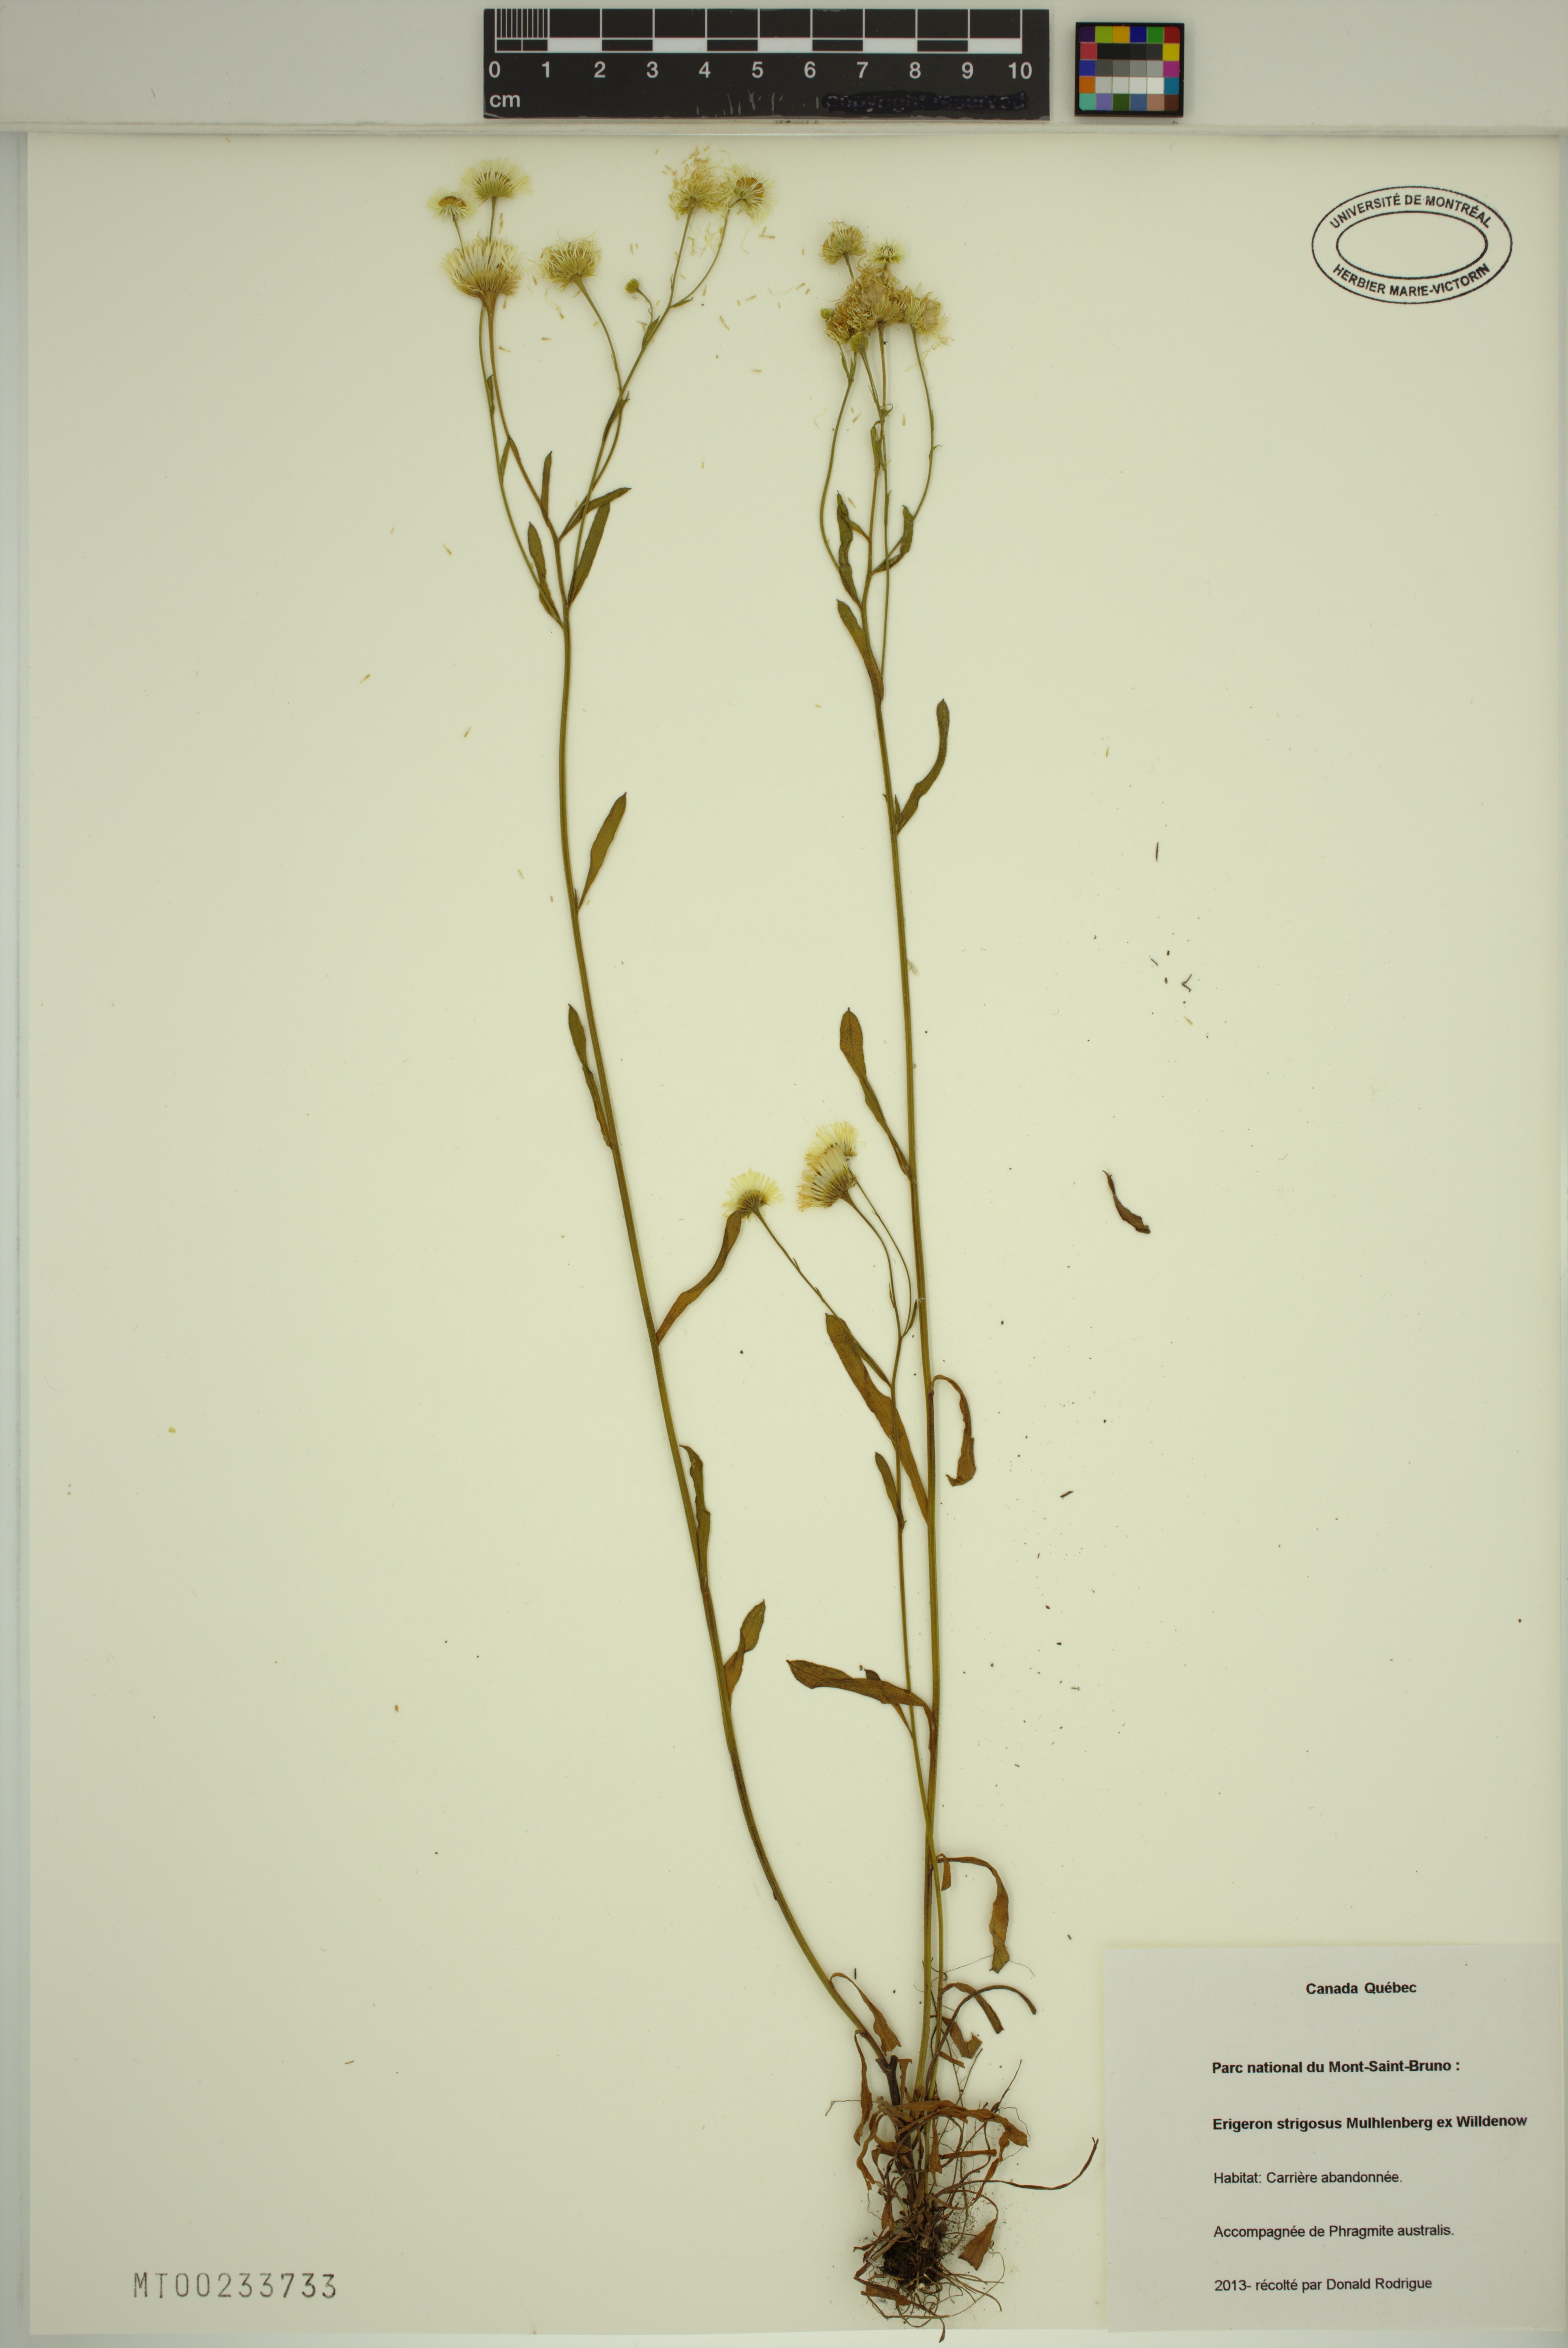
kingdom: Plantae
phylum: Tracheophyta
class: Magnoliopsida
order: Asterales
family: Asteraceae
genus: Erigeron
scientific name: Erigeron strigosus
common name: Common eastern fleabane
